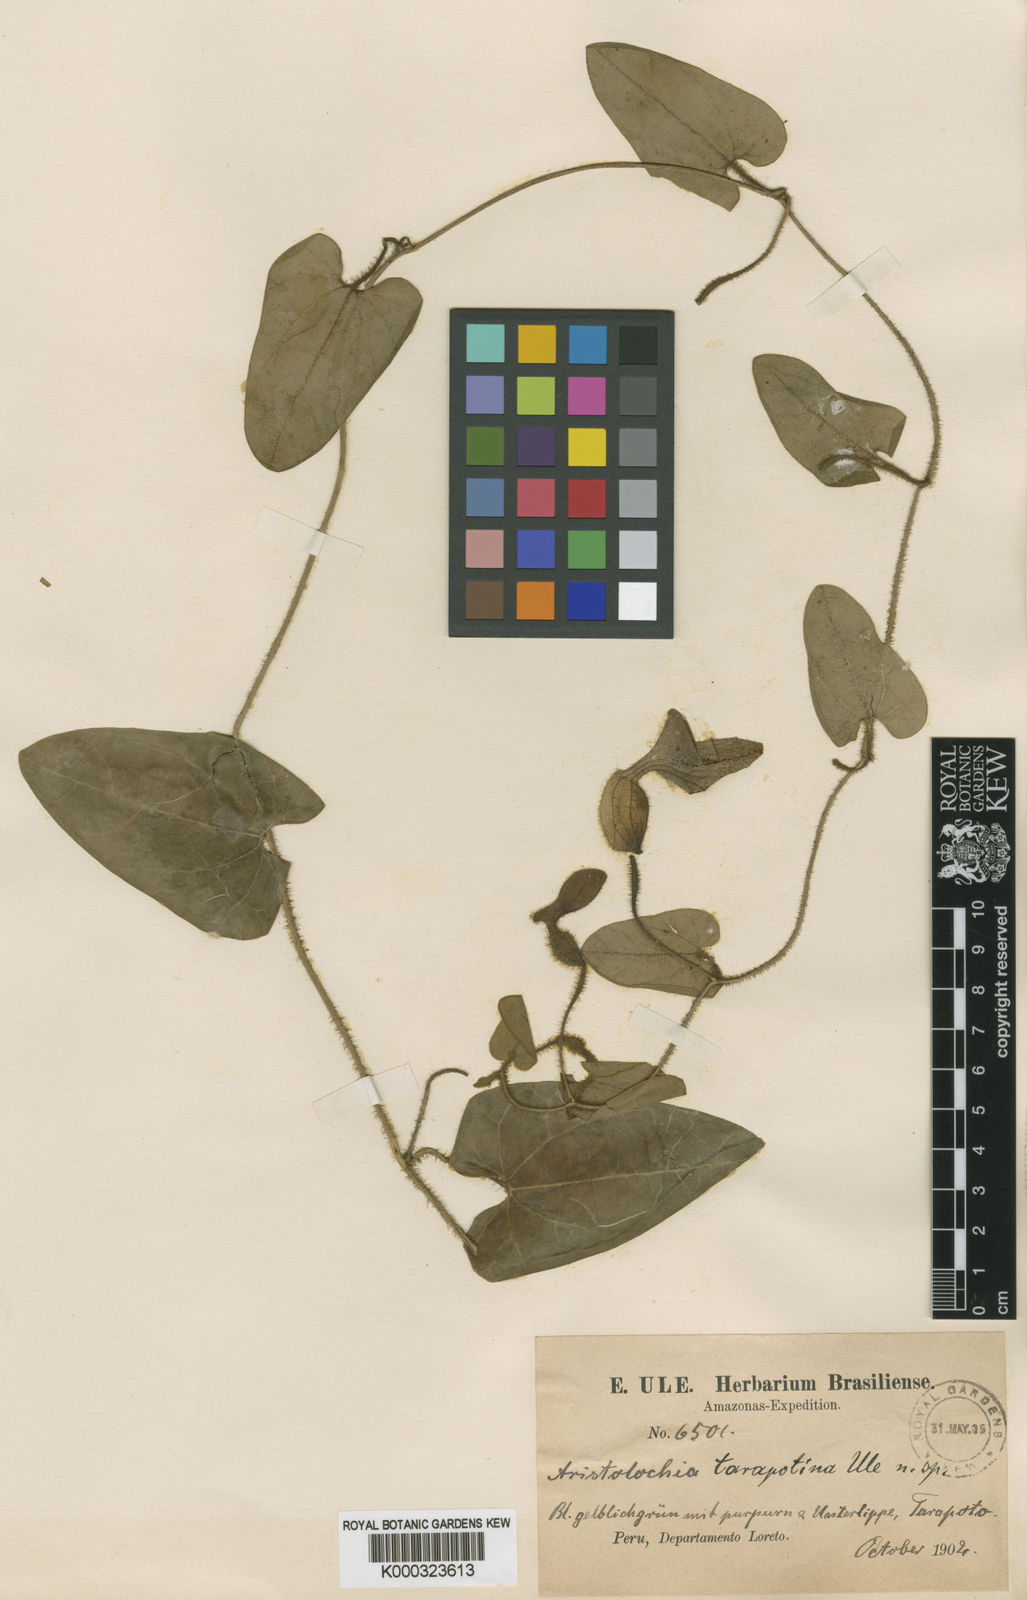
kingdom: Plantae
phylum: Tracheophyta
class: Magnoliopsida
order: Piperales
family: Aristolochiaceae
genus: Aristolochia
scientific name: Aristolochia truncata
